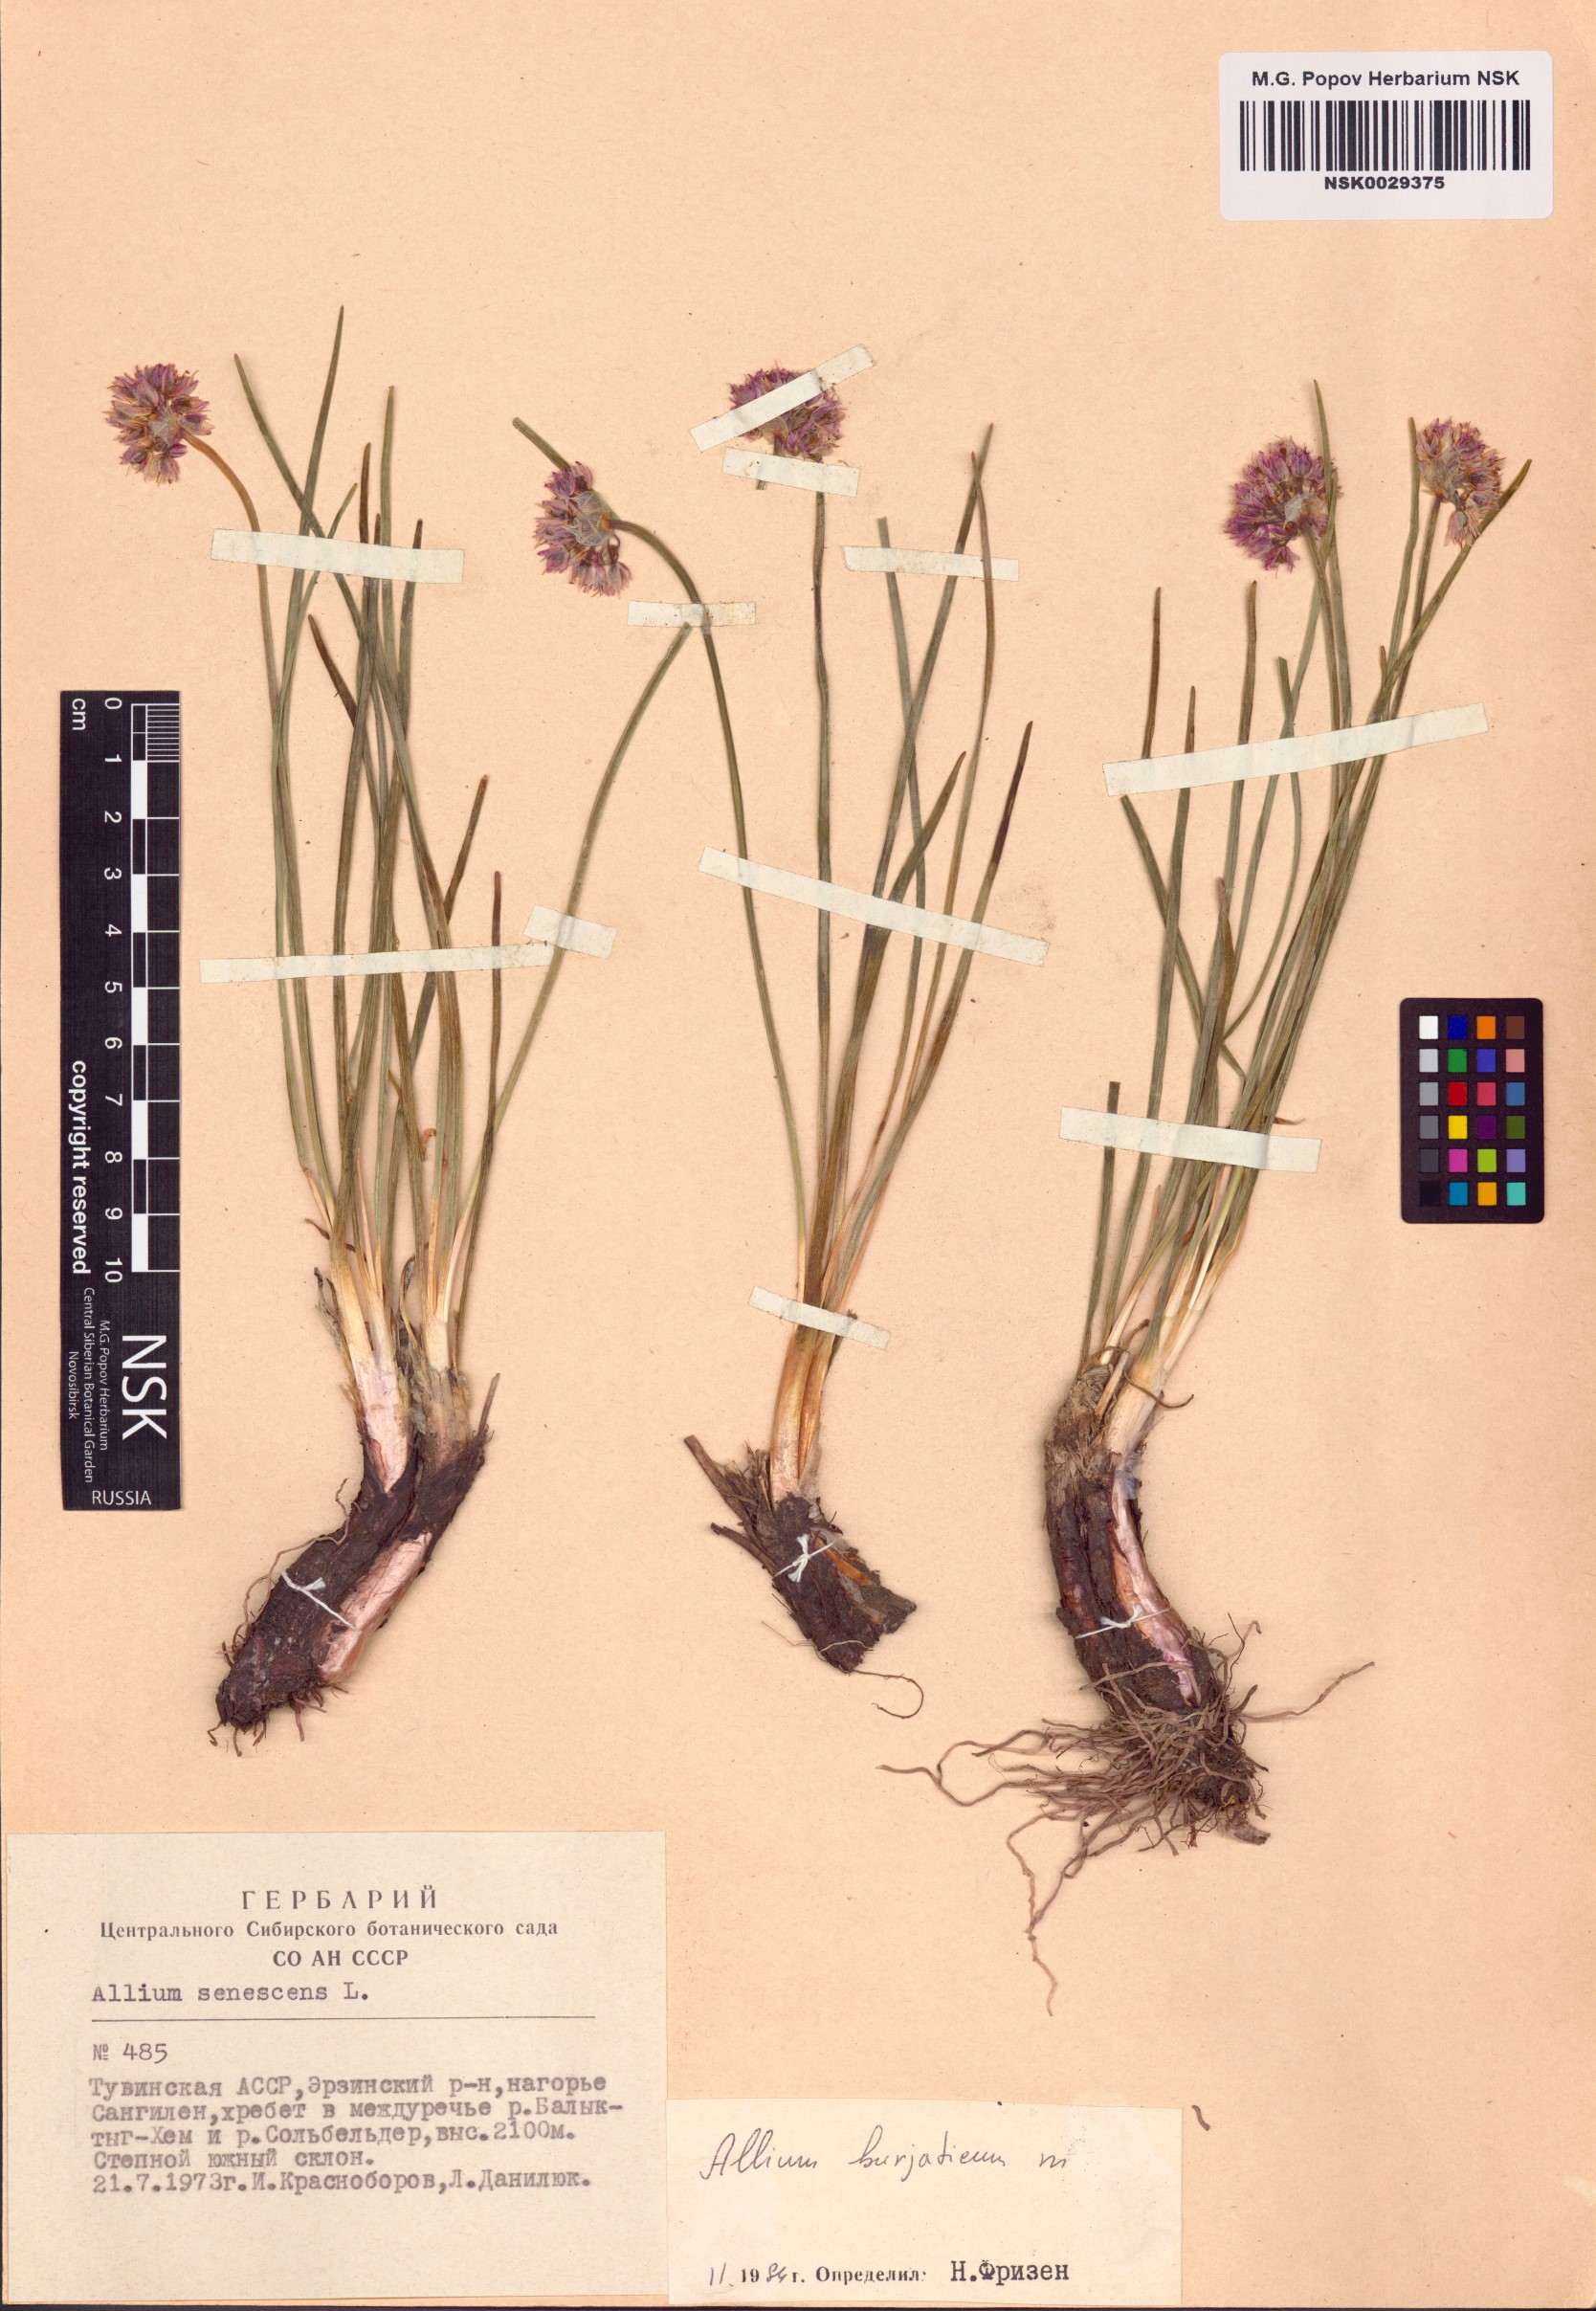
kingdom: Plantae
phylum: Tracheophyta
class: Liliopsida
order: Asparagales
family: Amaryllidaceae
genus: Allium
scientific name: Allium burjaticum
